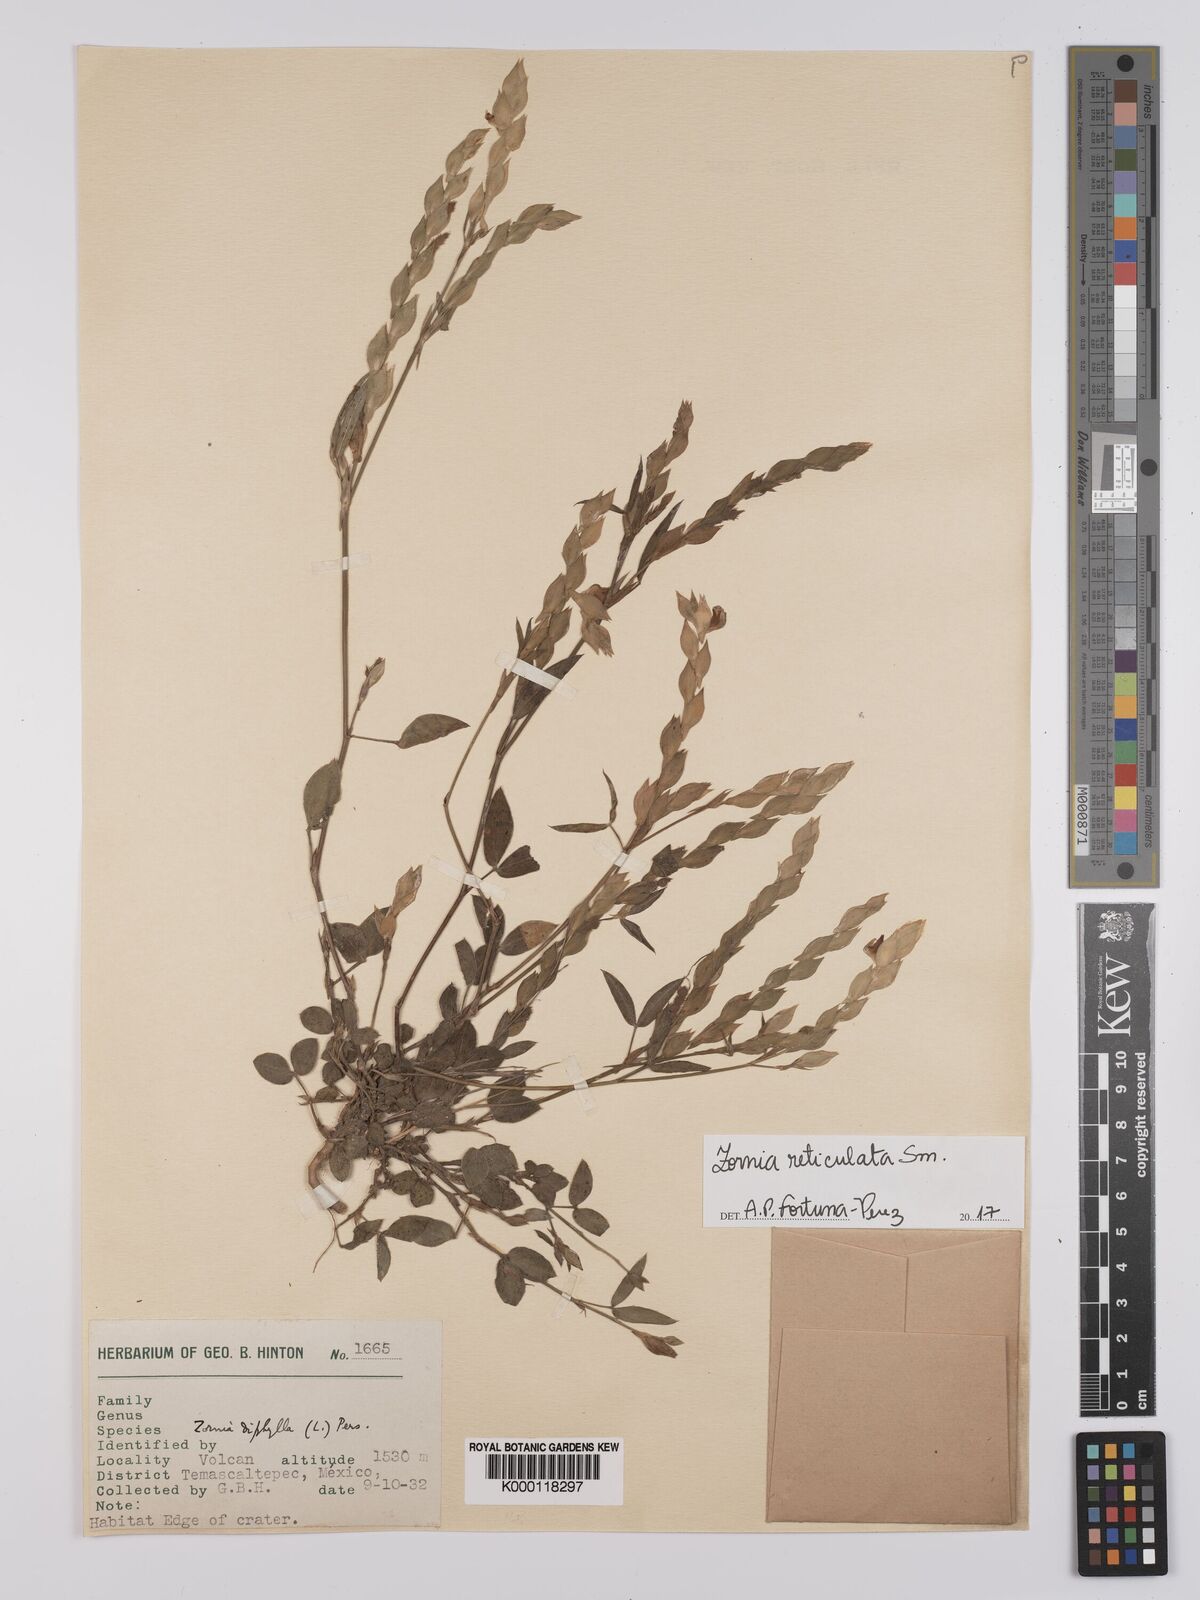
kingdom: Plantae
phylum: Tracheophyta
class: Magnoliopsida
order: Fabales
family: Fabaceae
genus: Zornia
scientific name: Zornia reticulata
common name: Reticulate viperina
